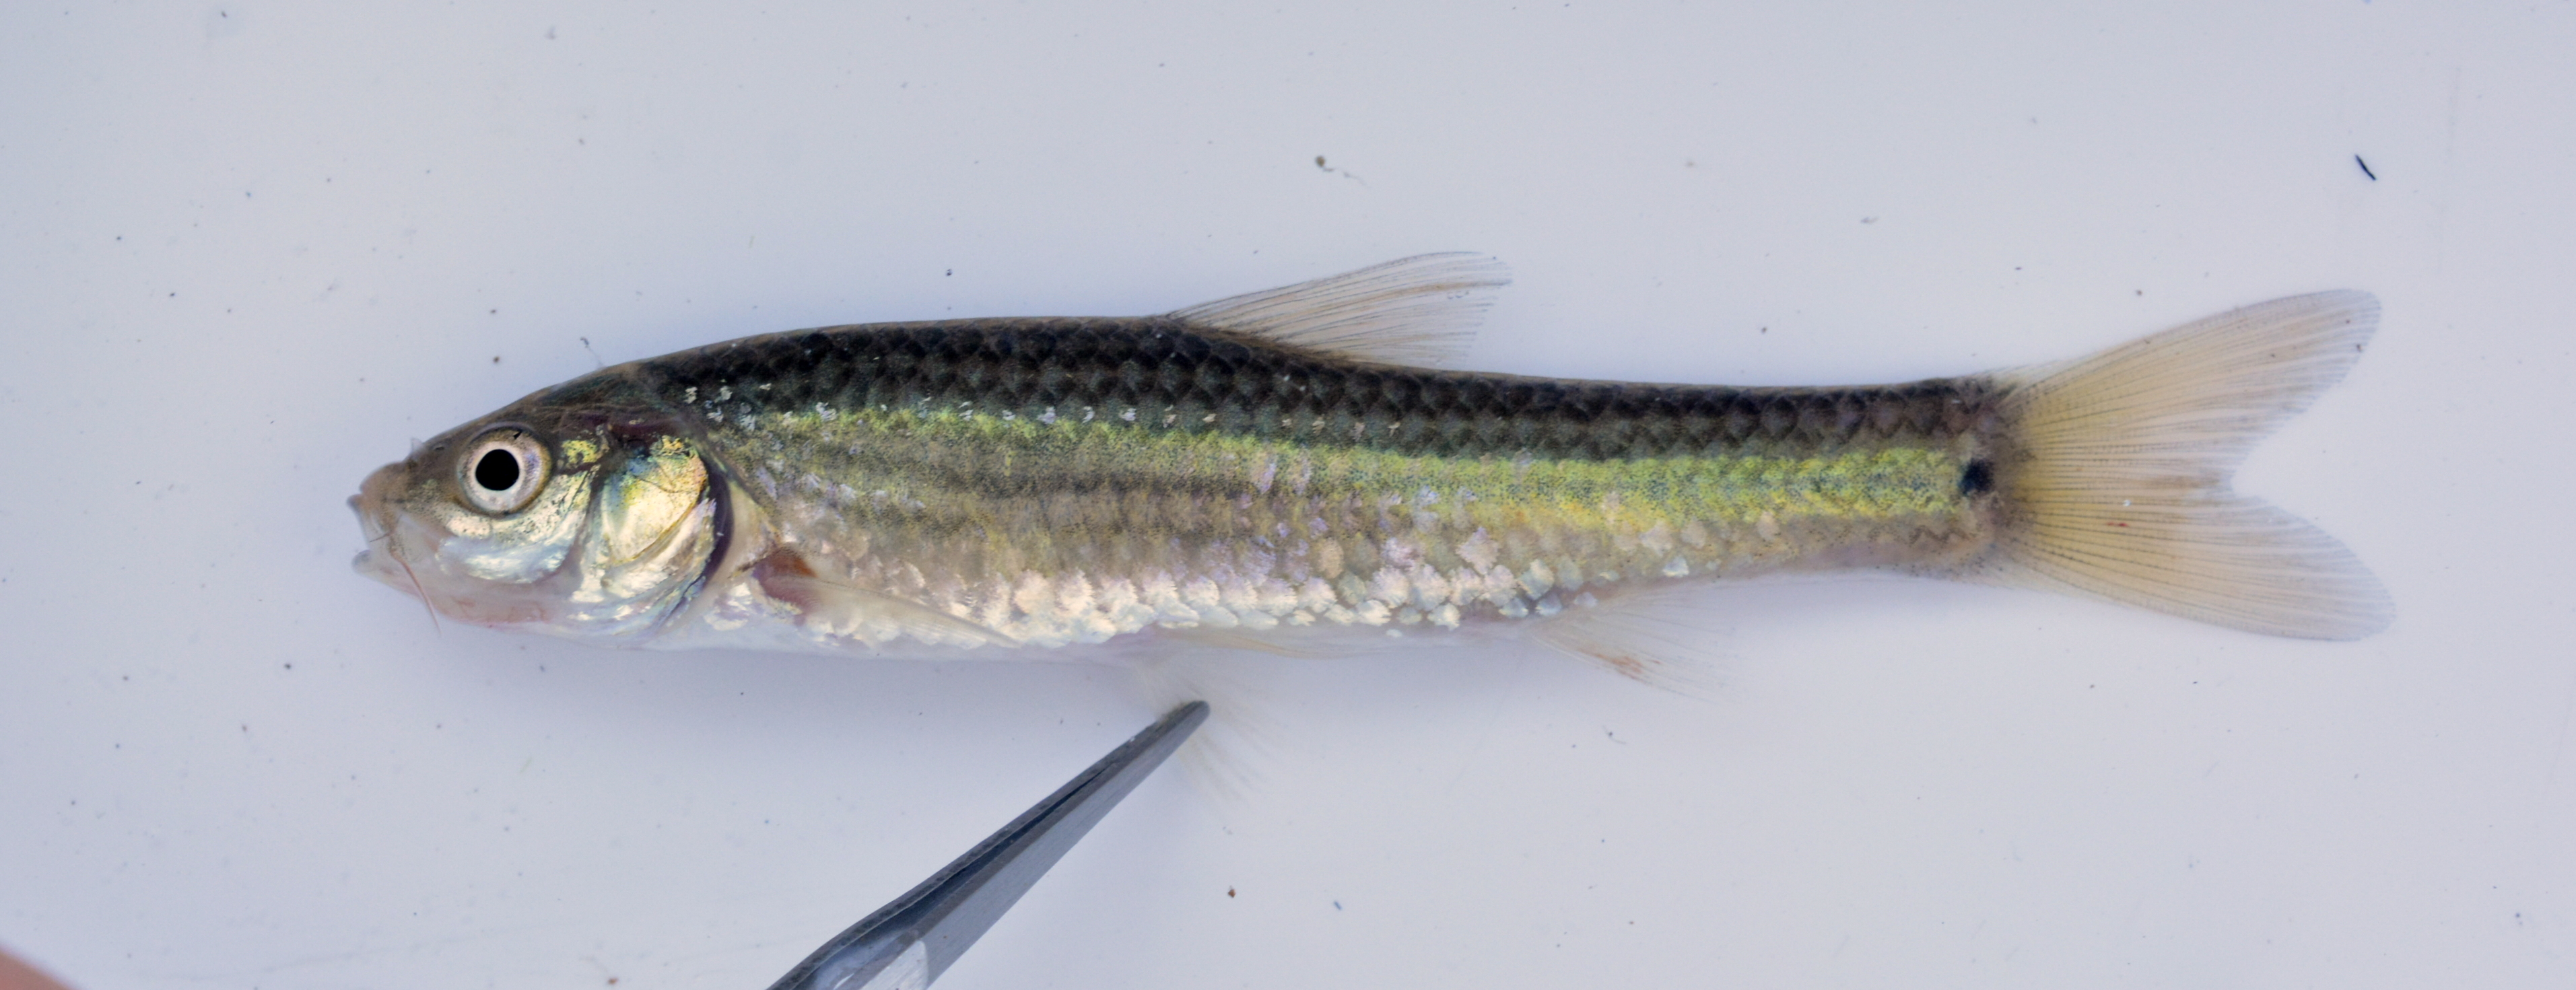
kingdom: Animalia
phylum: Chordata
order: Cypriniformes
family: Cyprinidae
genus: Enteromius
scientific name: Enteromius mocoensis
